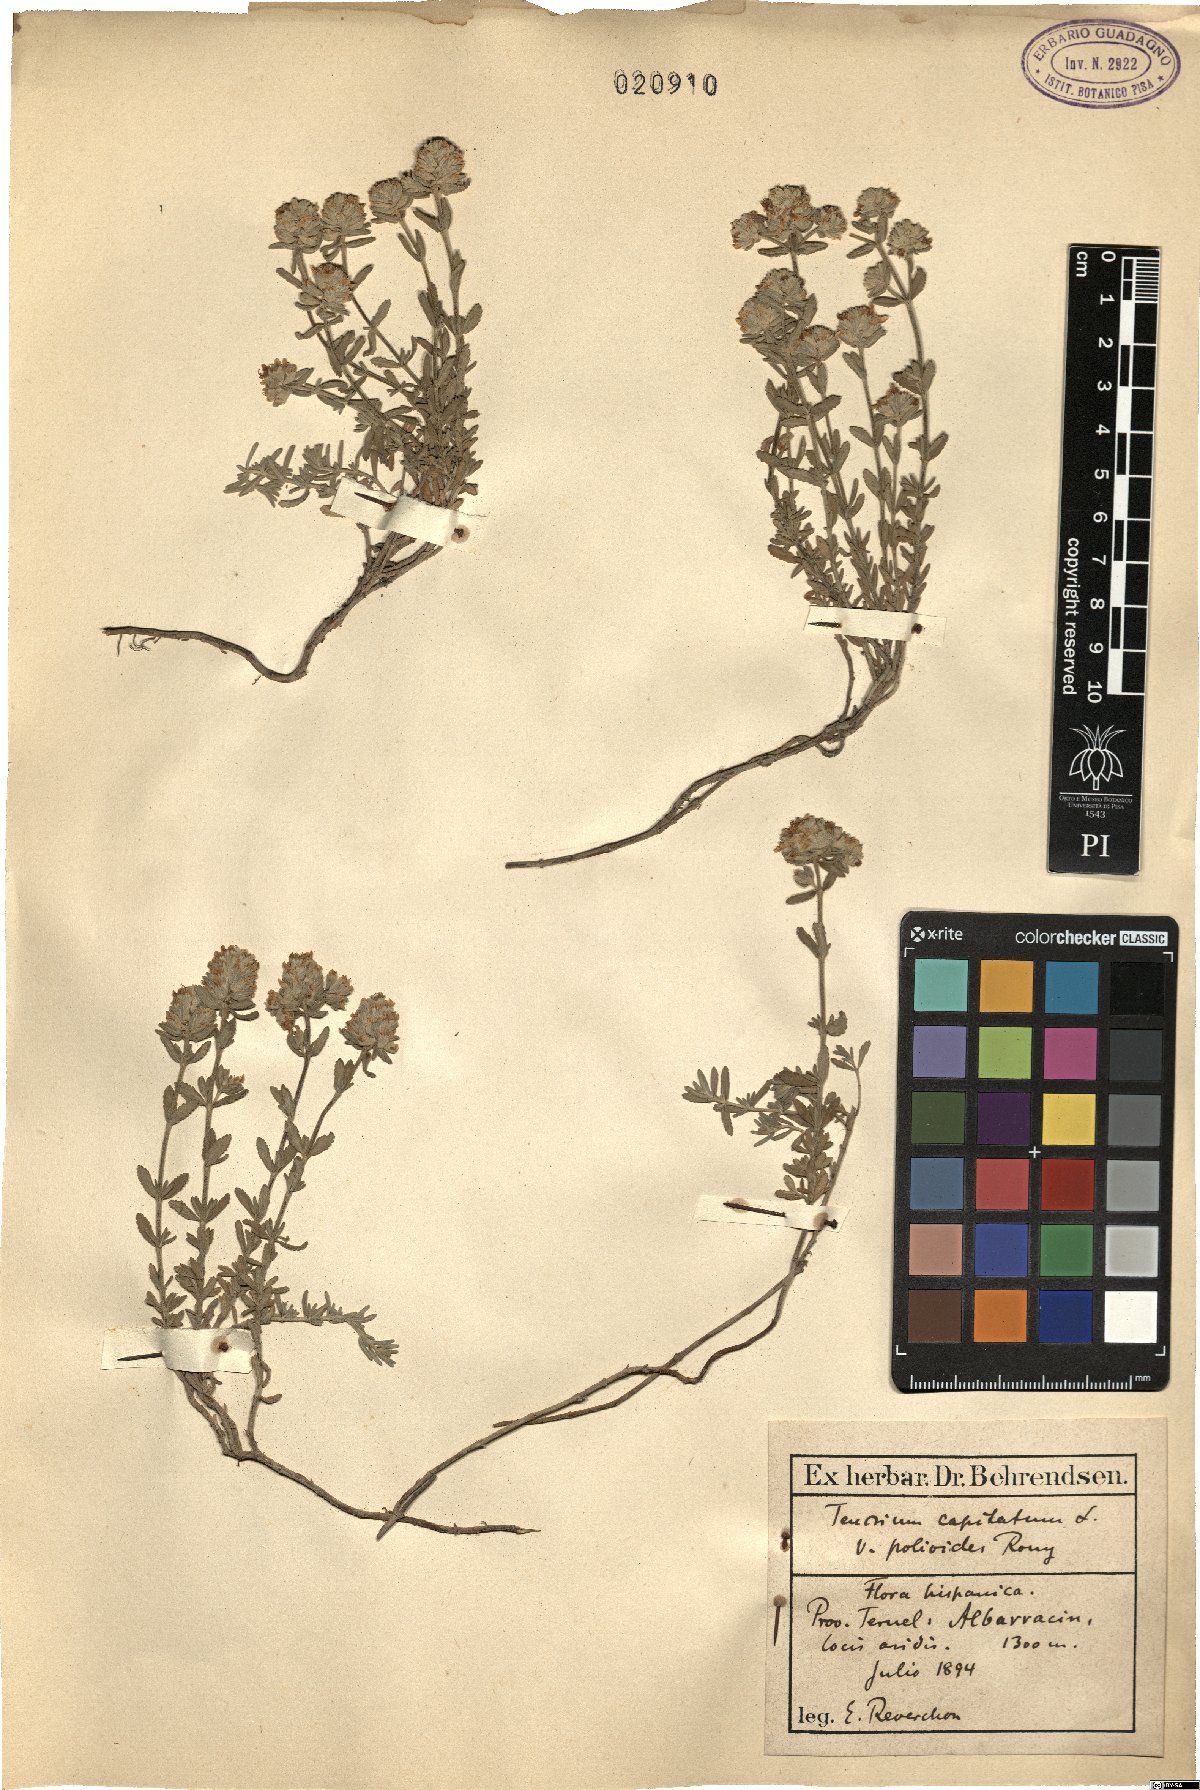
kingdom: Plantae
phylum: Tracheophyta
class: Magnoliopsida
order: Lamiales
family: Lamiaceae
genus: Teucrium
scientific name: Teucrium capitatum
